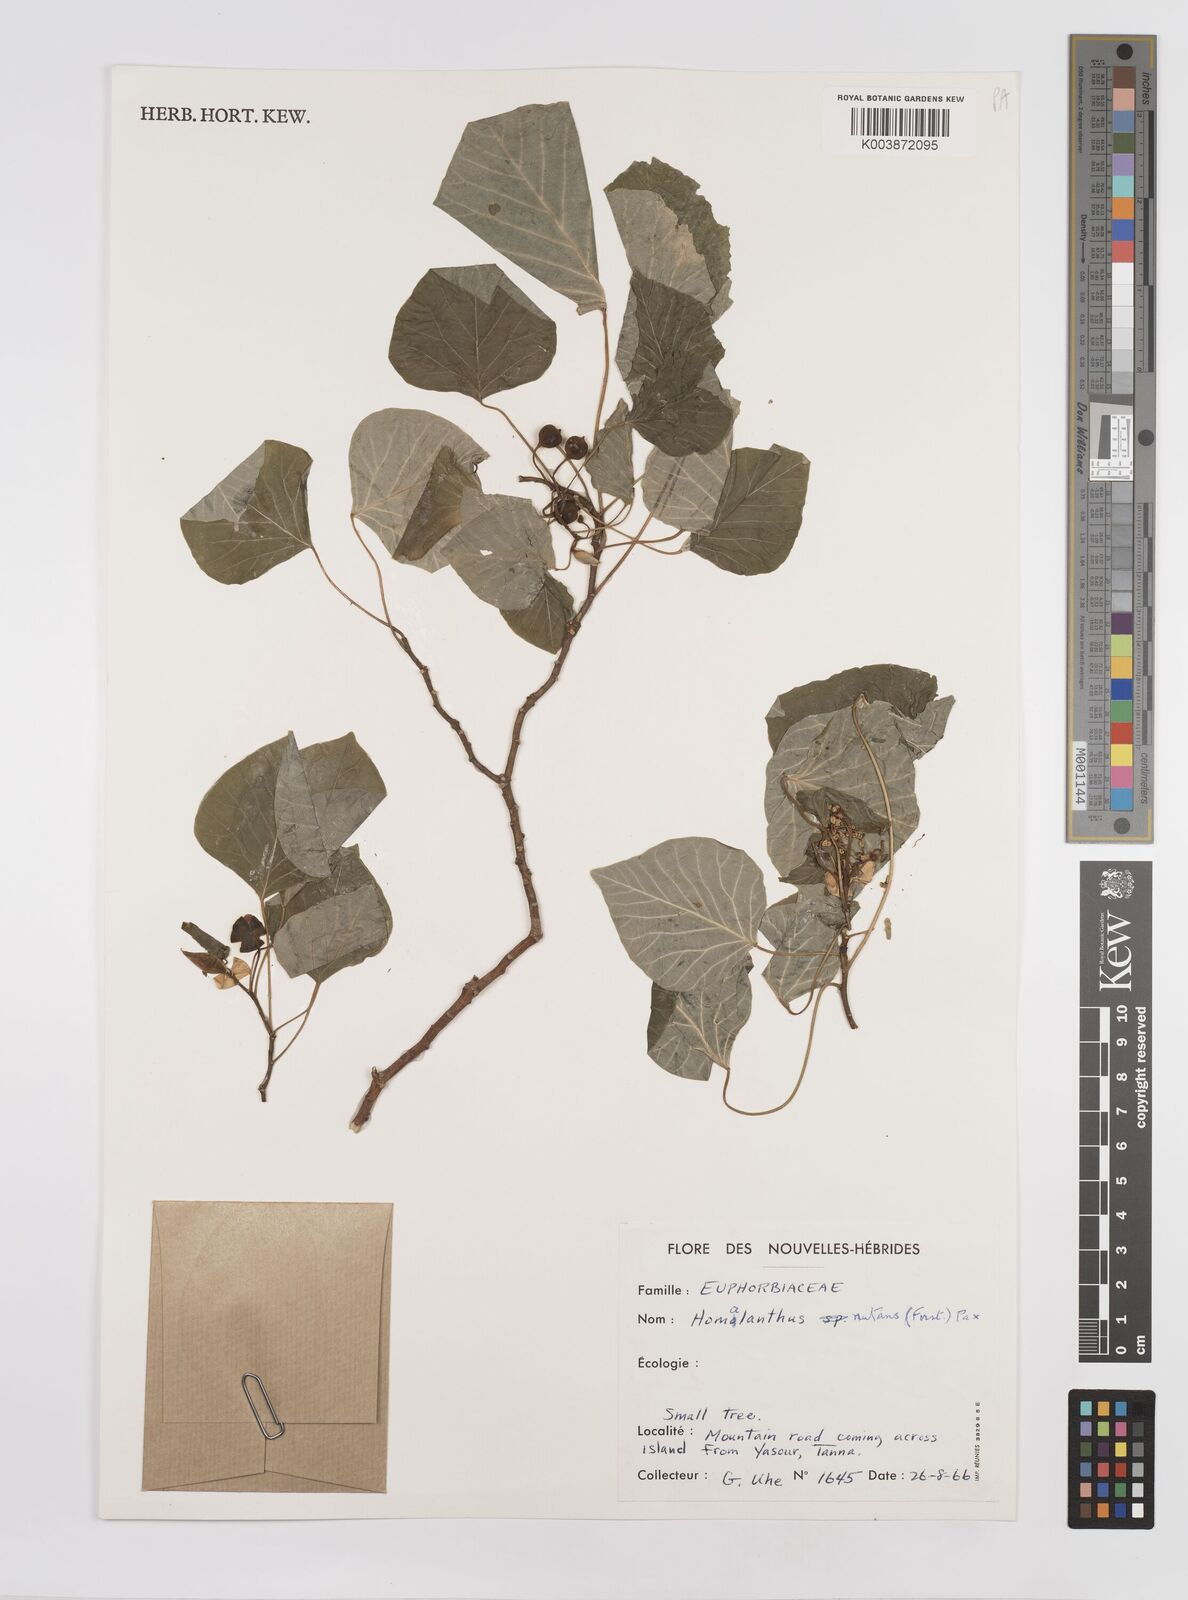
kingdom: Plantae
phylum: Tracheophyta
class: Magnoliopsida
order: Malpighiales
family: Euphorbiaceae
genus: Homalanthus
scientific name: Homalanthus nutans
